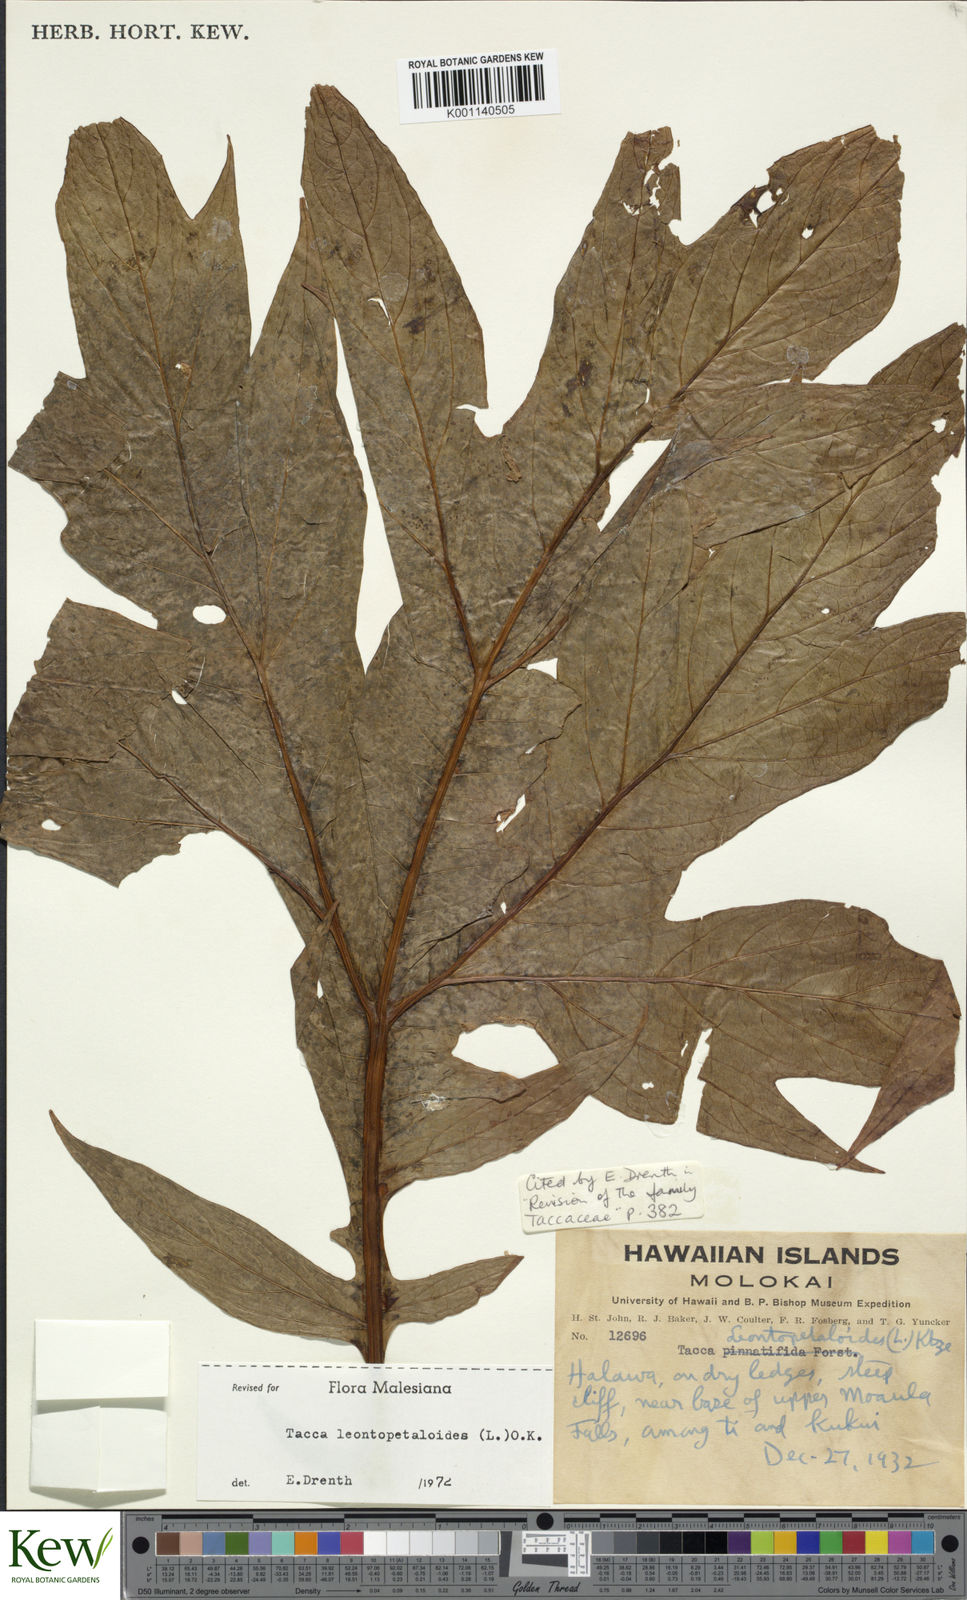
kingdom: Plantae
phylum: Tracheophyta
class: Liliopsida
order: Dioscoreales
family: Dioscoreaceae
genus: Tacca
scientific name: Tacca leontopetaloides
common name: Arrowroot
